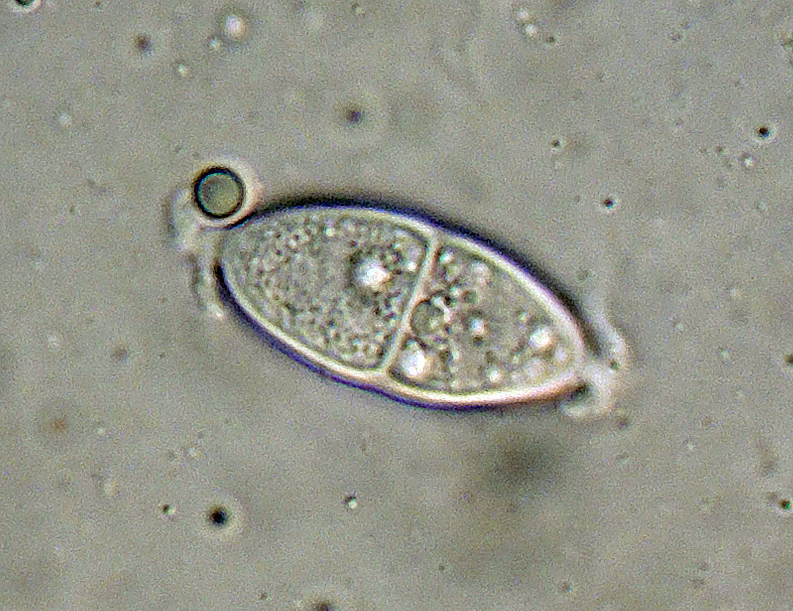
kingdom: Fungi
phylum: Ascomycota
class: Dothideomycetes
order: Pleosporales
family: Didymosphaeriaceae
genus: Montagnula
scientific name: Montagnula perforans
